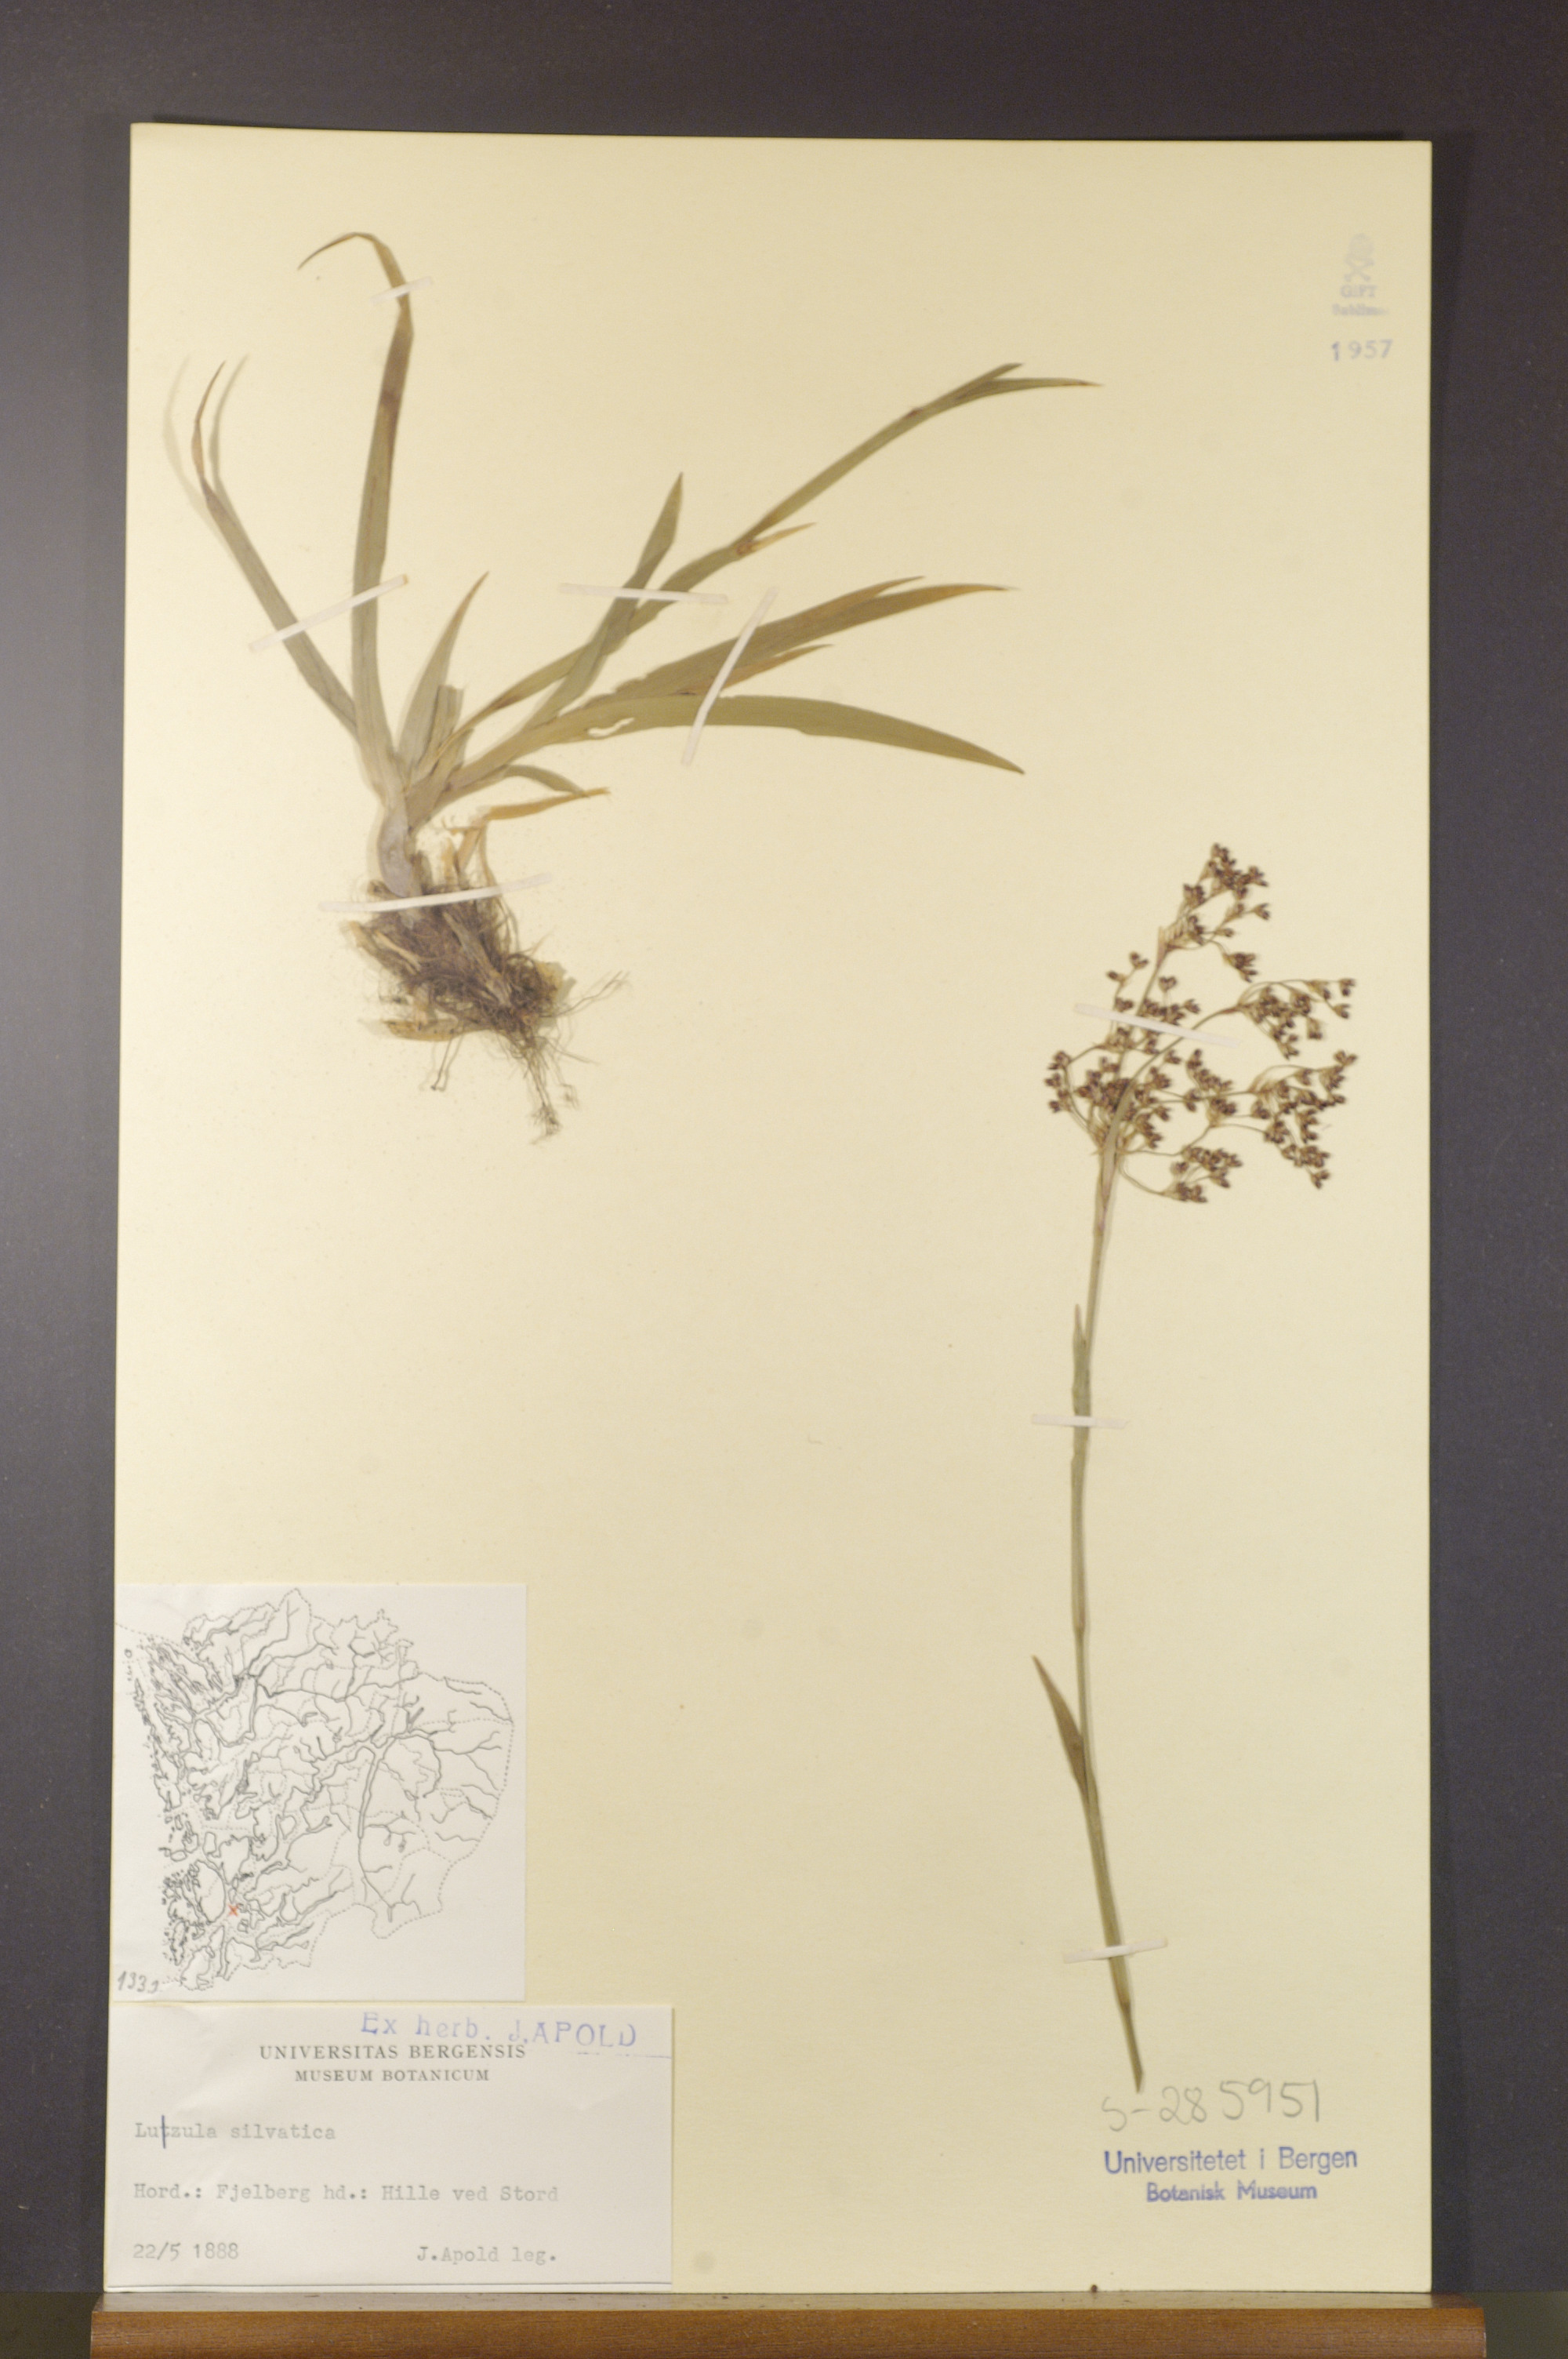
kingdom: Plantae
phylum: Tracheophyta
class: Liliopsida
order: Poales
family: Juncaceae
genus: Luzula
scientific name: Luzula sylvatica
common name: Great wood-rush
